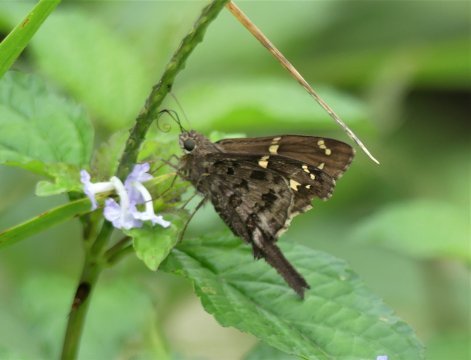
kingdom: Animalia
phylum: Arthropoda
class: Insecta
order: Lepidoptera
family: Hesperiidae
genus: Urbanus
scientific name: Urbanus pronta
